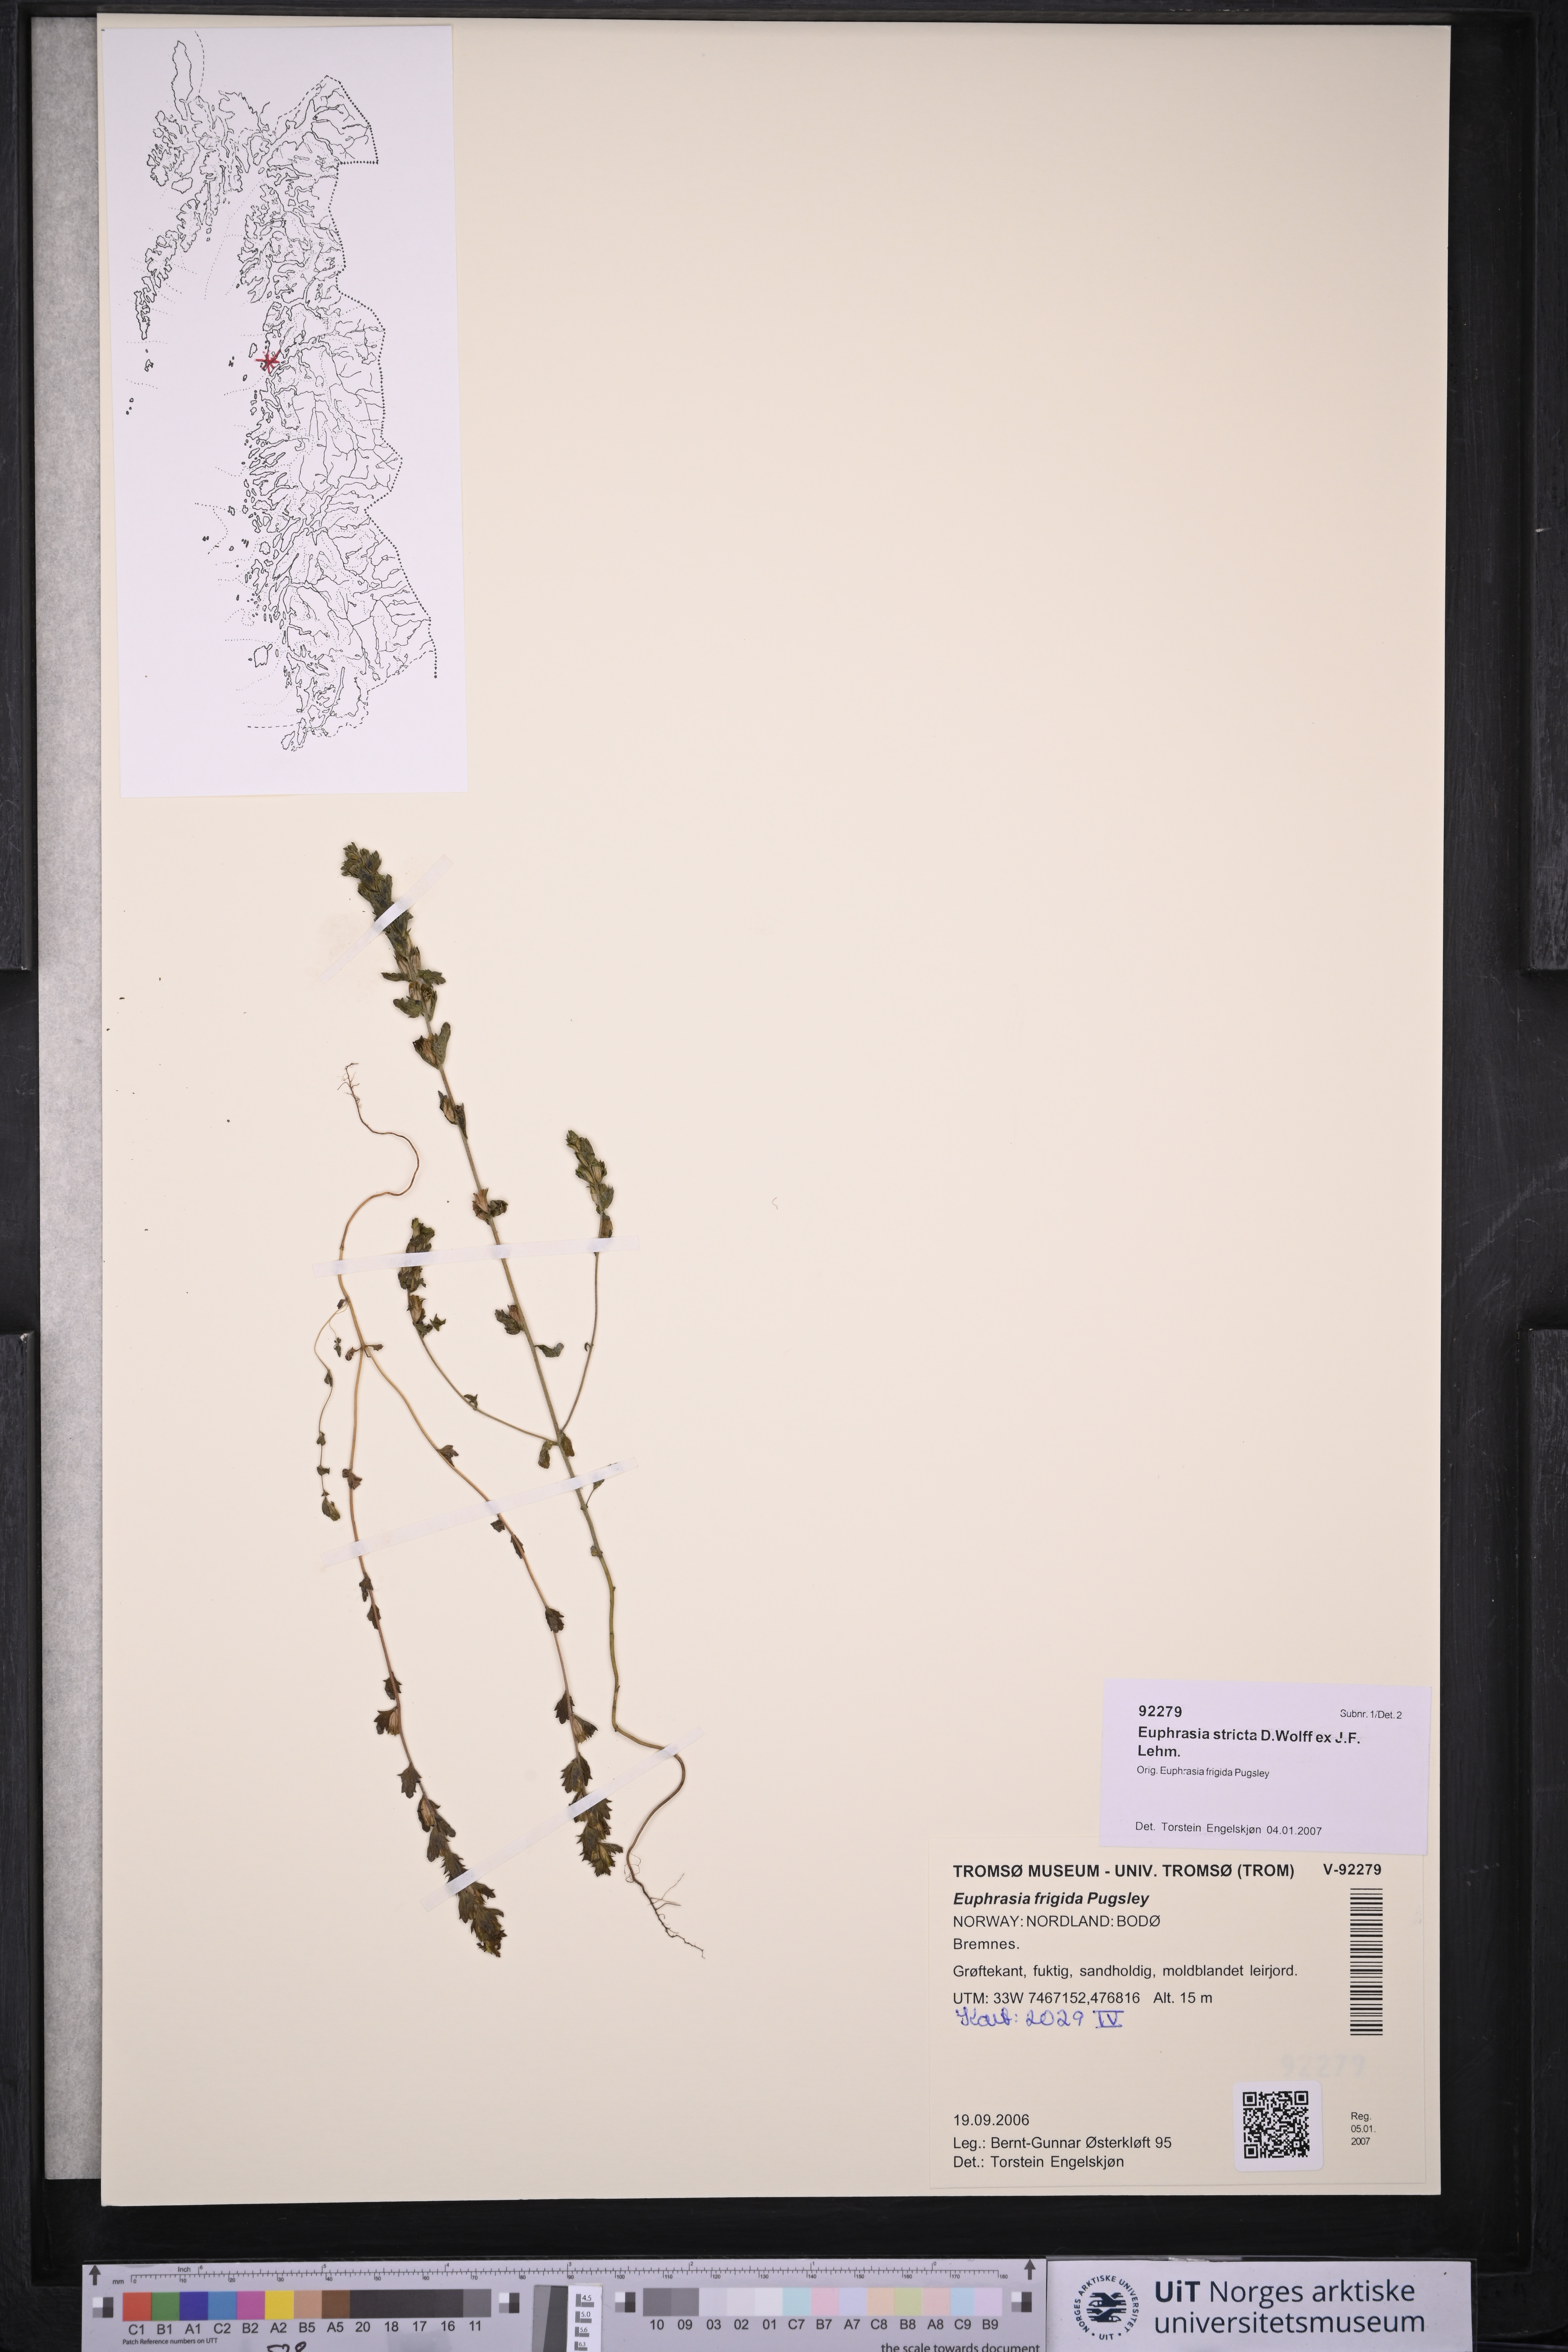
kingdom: Plantae
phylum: Tracheophyta
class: Magnoliopsida
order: Lamiales
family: Orobanchaceae
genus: Euphrasia
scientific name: Euphrasia stricta
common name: Drug eyebright
